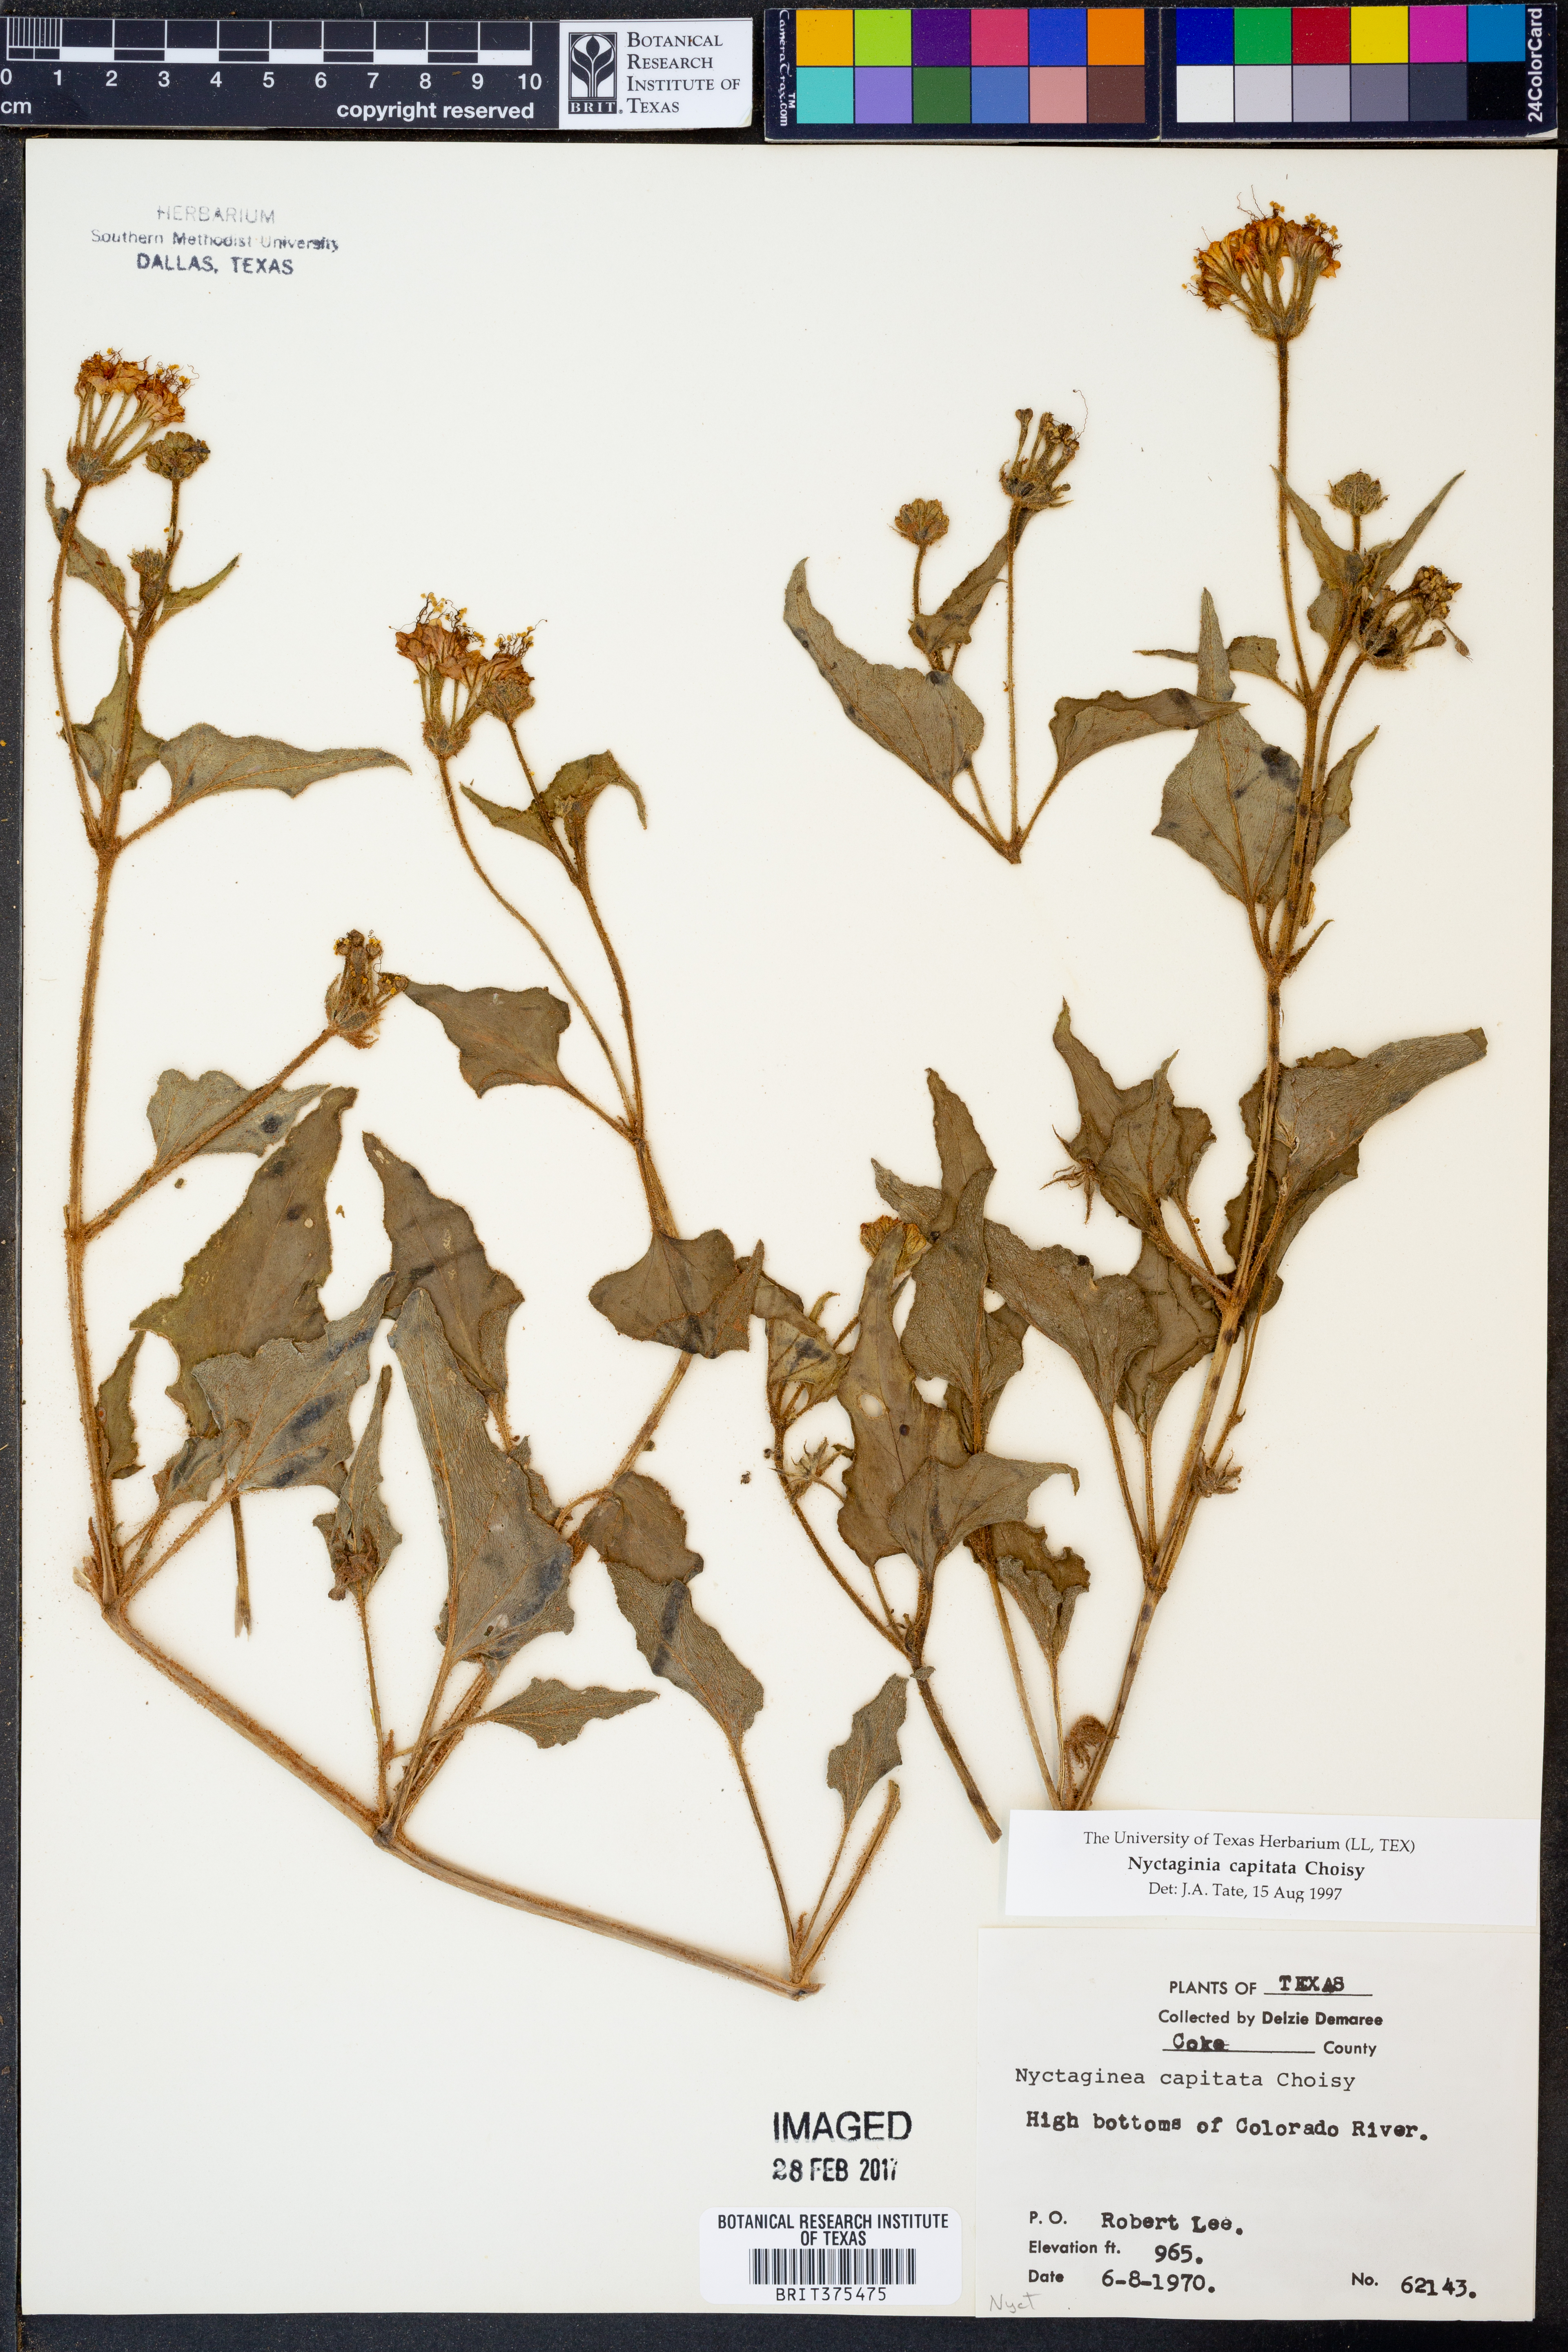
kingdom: Plantae
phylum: Tracheophyta
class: Magnoliopsida
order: Caryophyllales
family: Nyctaginaceae
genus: Nyctaginia
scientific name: Nyctaginia capitata
